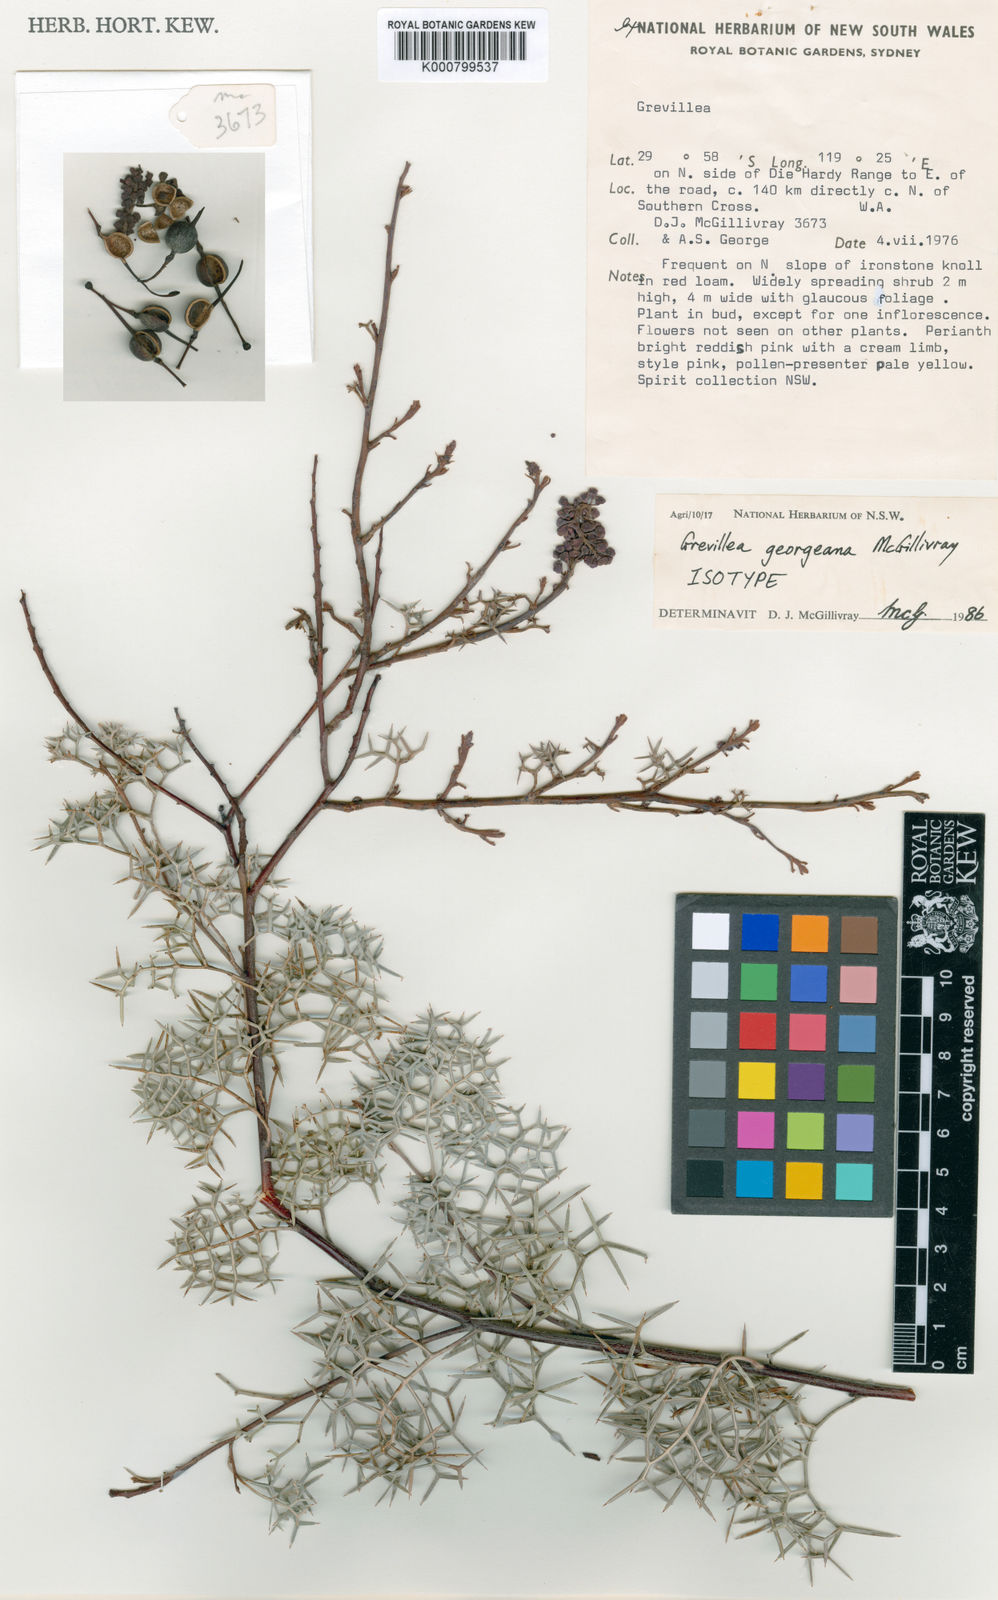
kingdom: Plantae
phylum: Tracheophyta
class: Magnoliopsida
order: Proteales
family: Proteaceae
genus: Grevillea
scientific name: Grevillea georgeana
